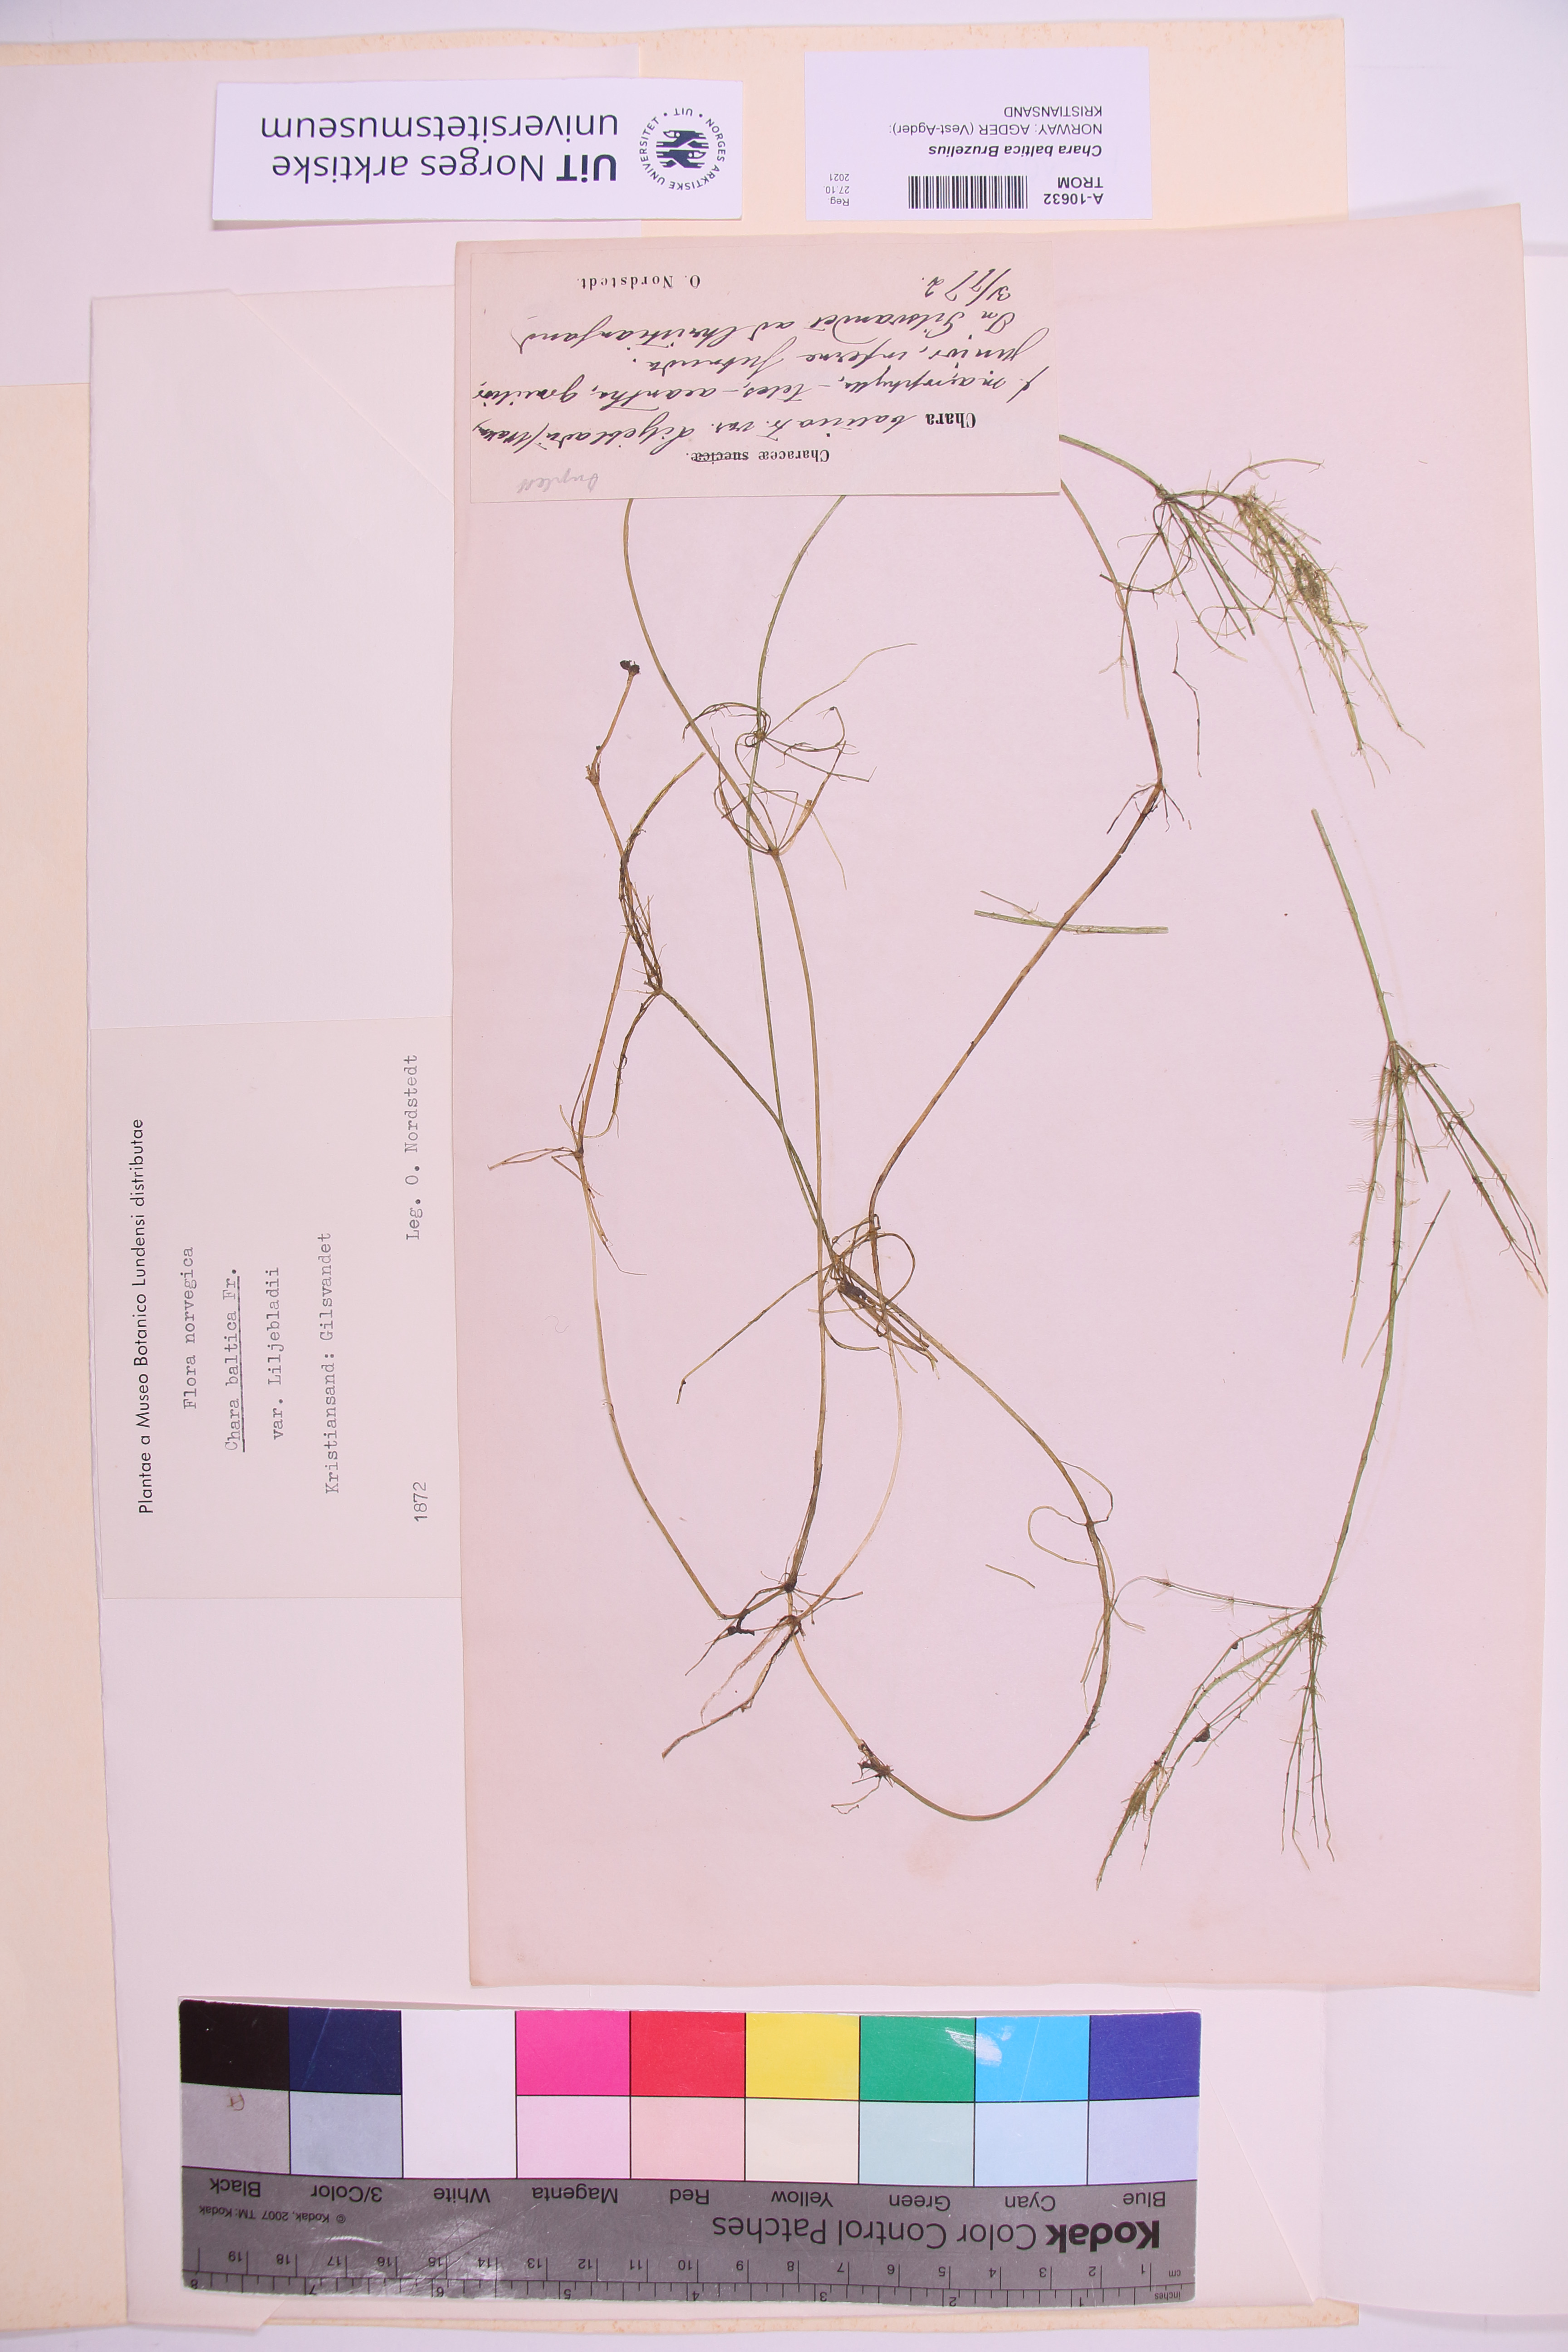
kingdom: Plantae
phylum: Charophyta
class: Charophyceae
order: Charales
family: Characeae
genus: Chara
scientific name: Chara baltica
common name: Baltic stonewort
